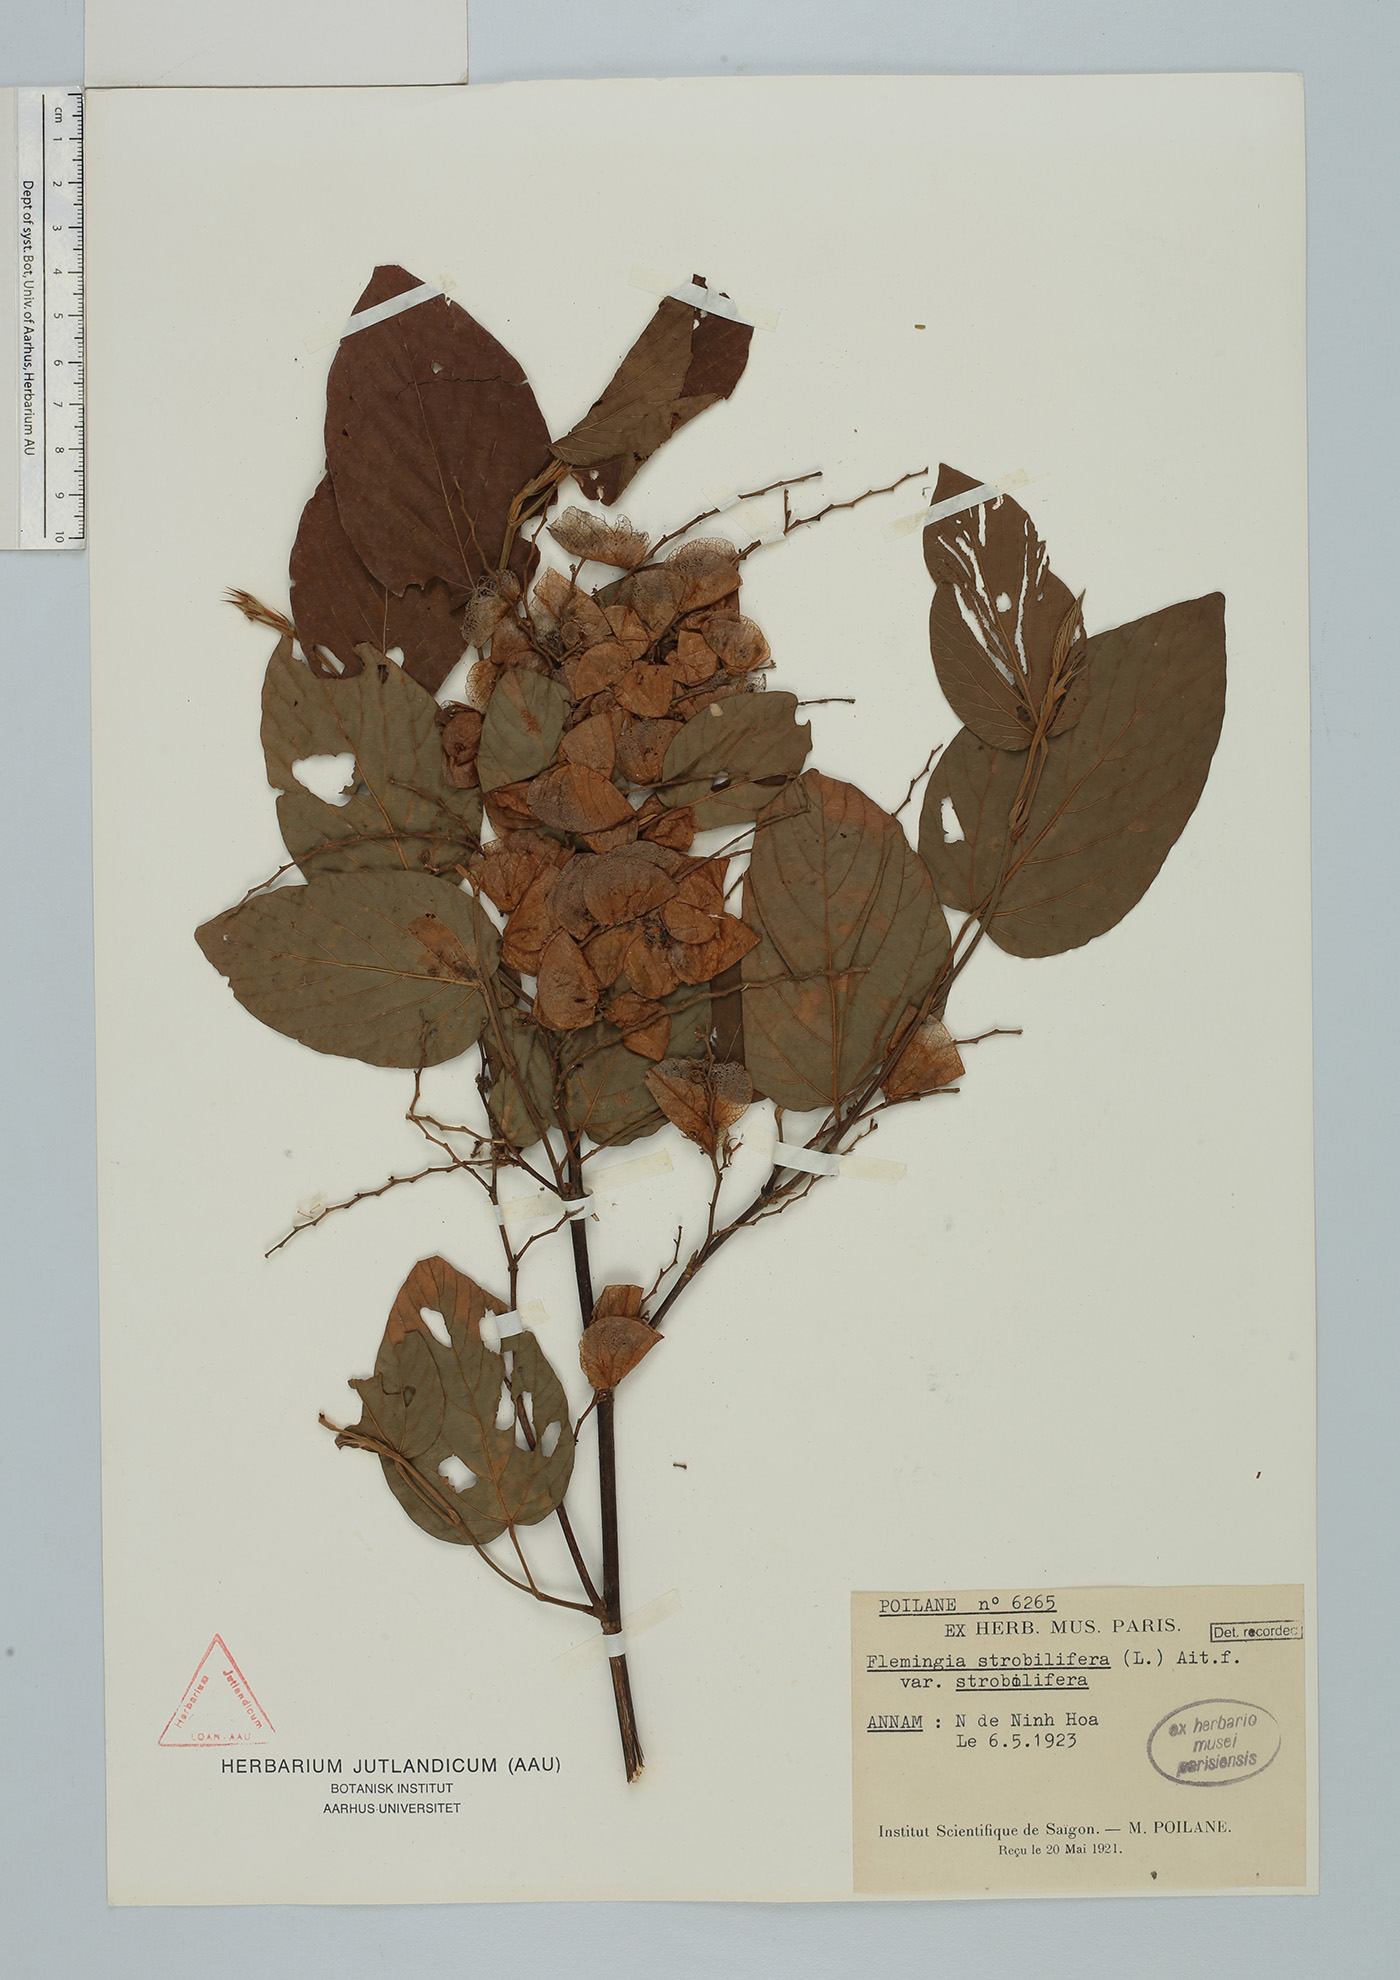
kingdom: Plantae
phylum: Tracheophyta
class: Magnoliopsida
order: Fabales
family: Fabaceae
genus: Flemingia
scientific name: Flemingia strobilifera
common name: Wild hops
